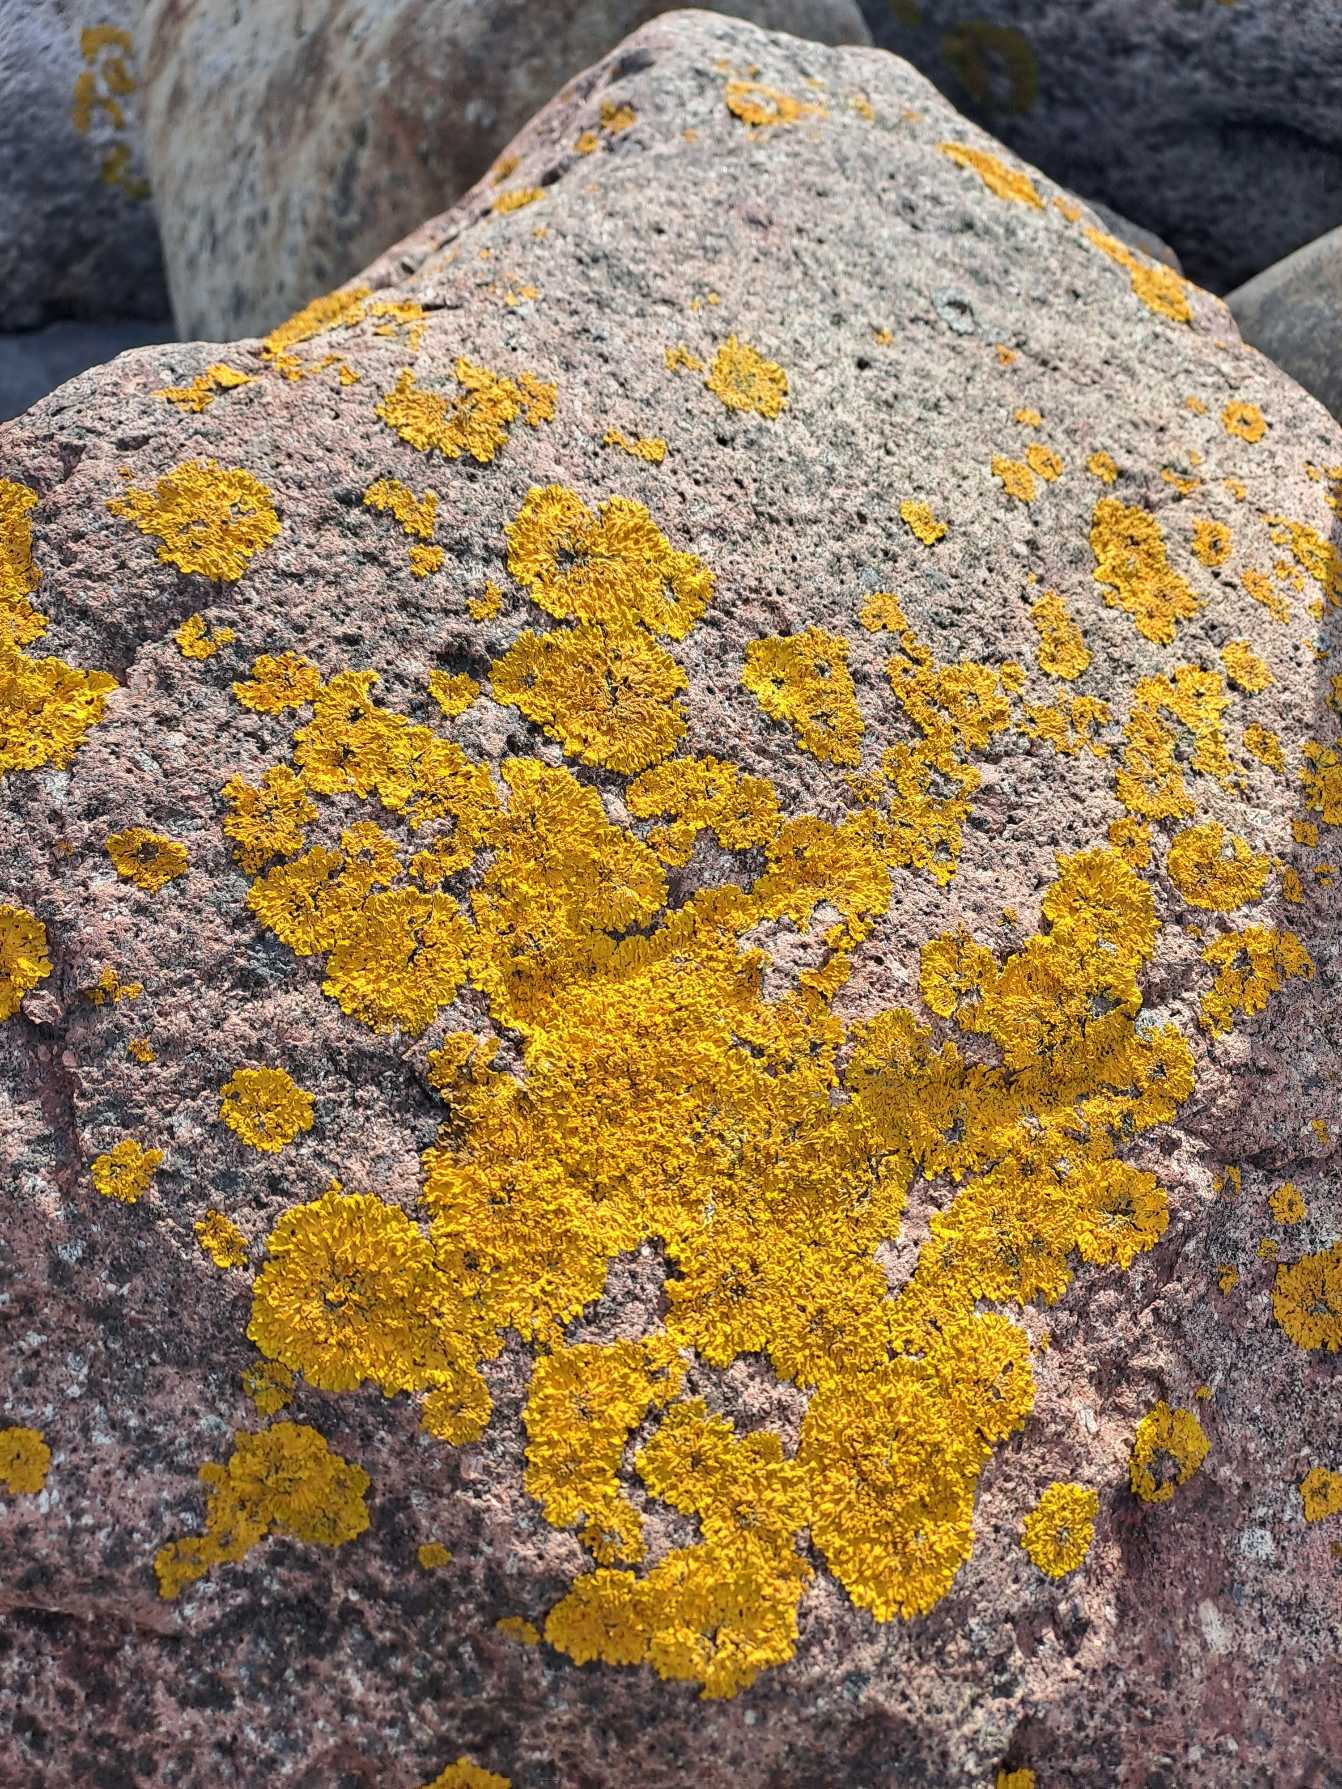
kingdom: Fungi
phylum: Ascomycota
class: Lecanoromycetes
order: Teloschistales
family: Teloschistaceae
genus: Xanthoria
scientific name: Xanthoria parietina
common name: Almindelig væggelav
